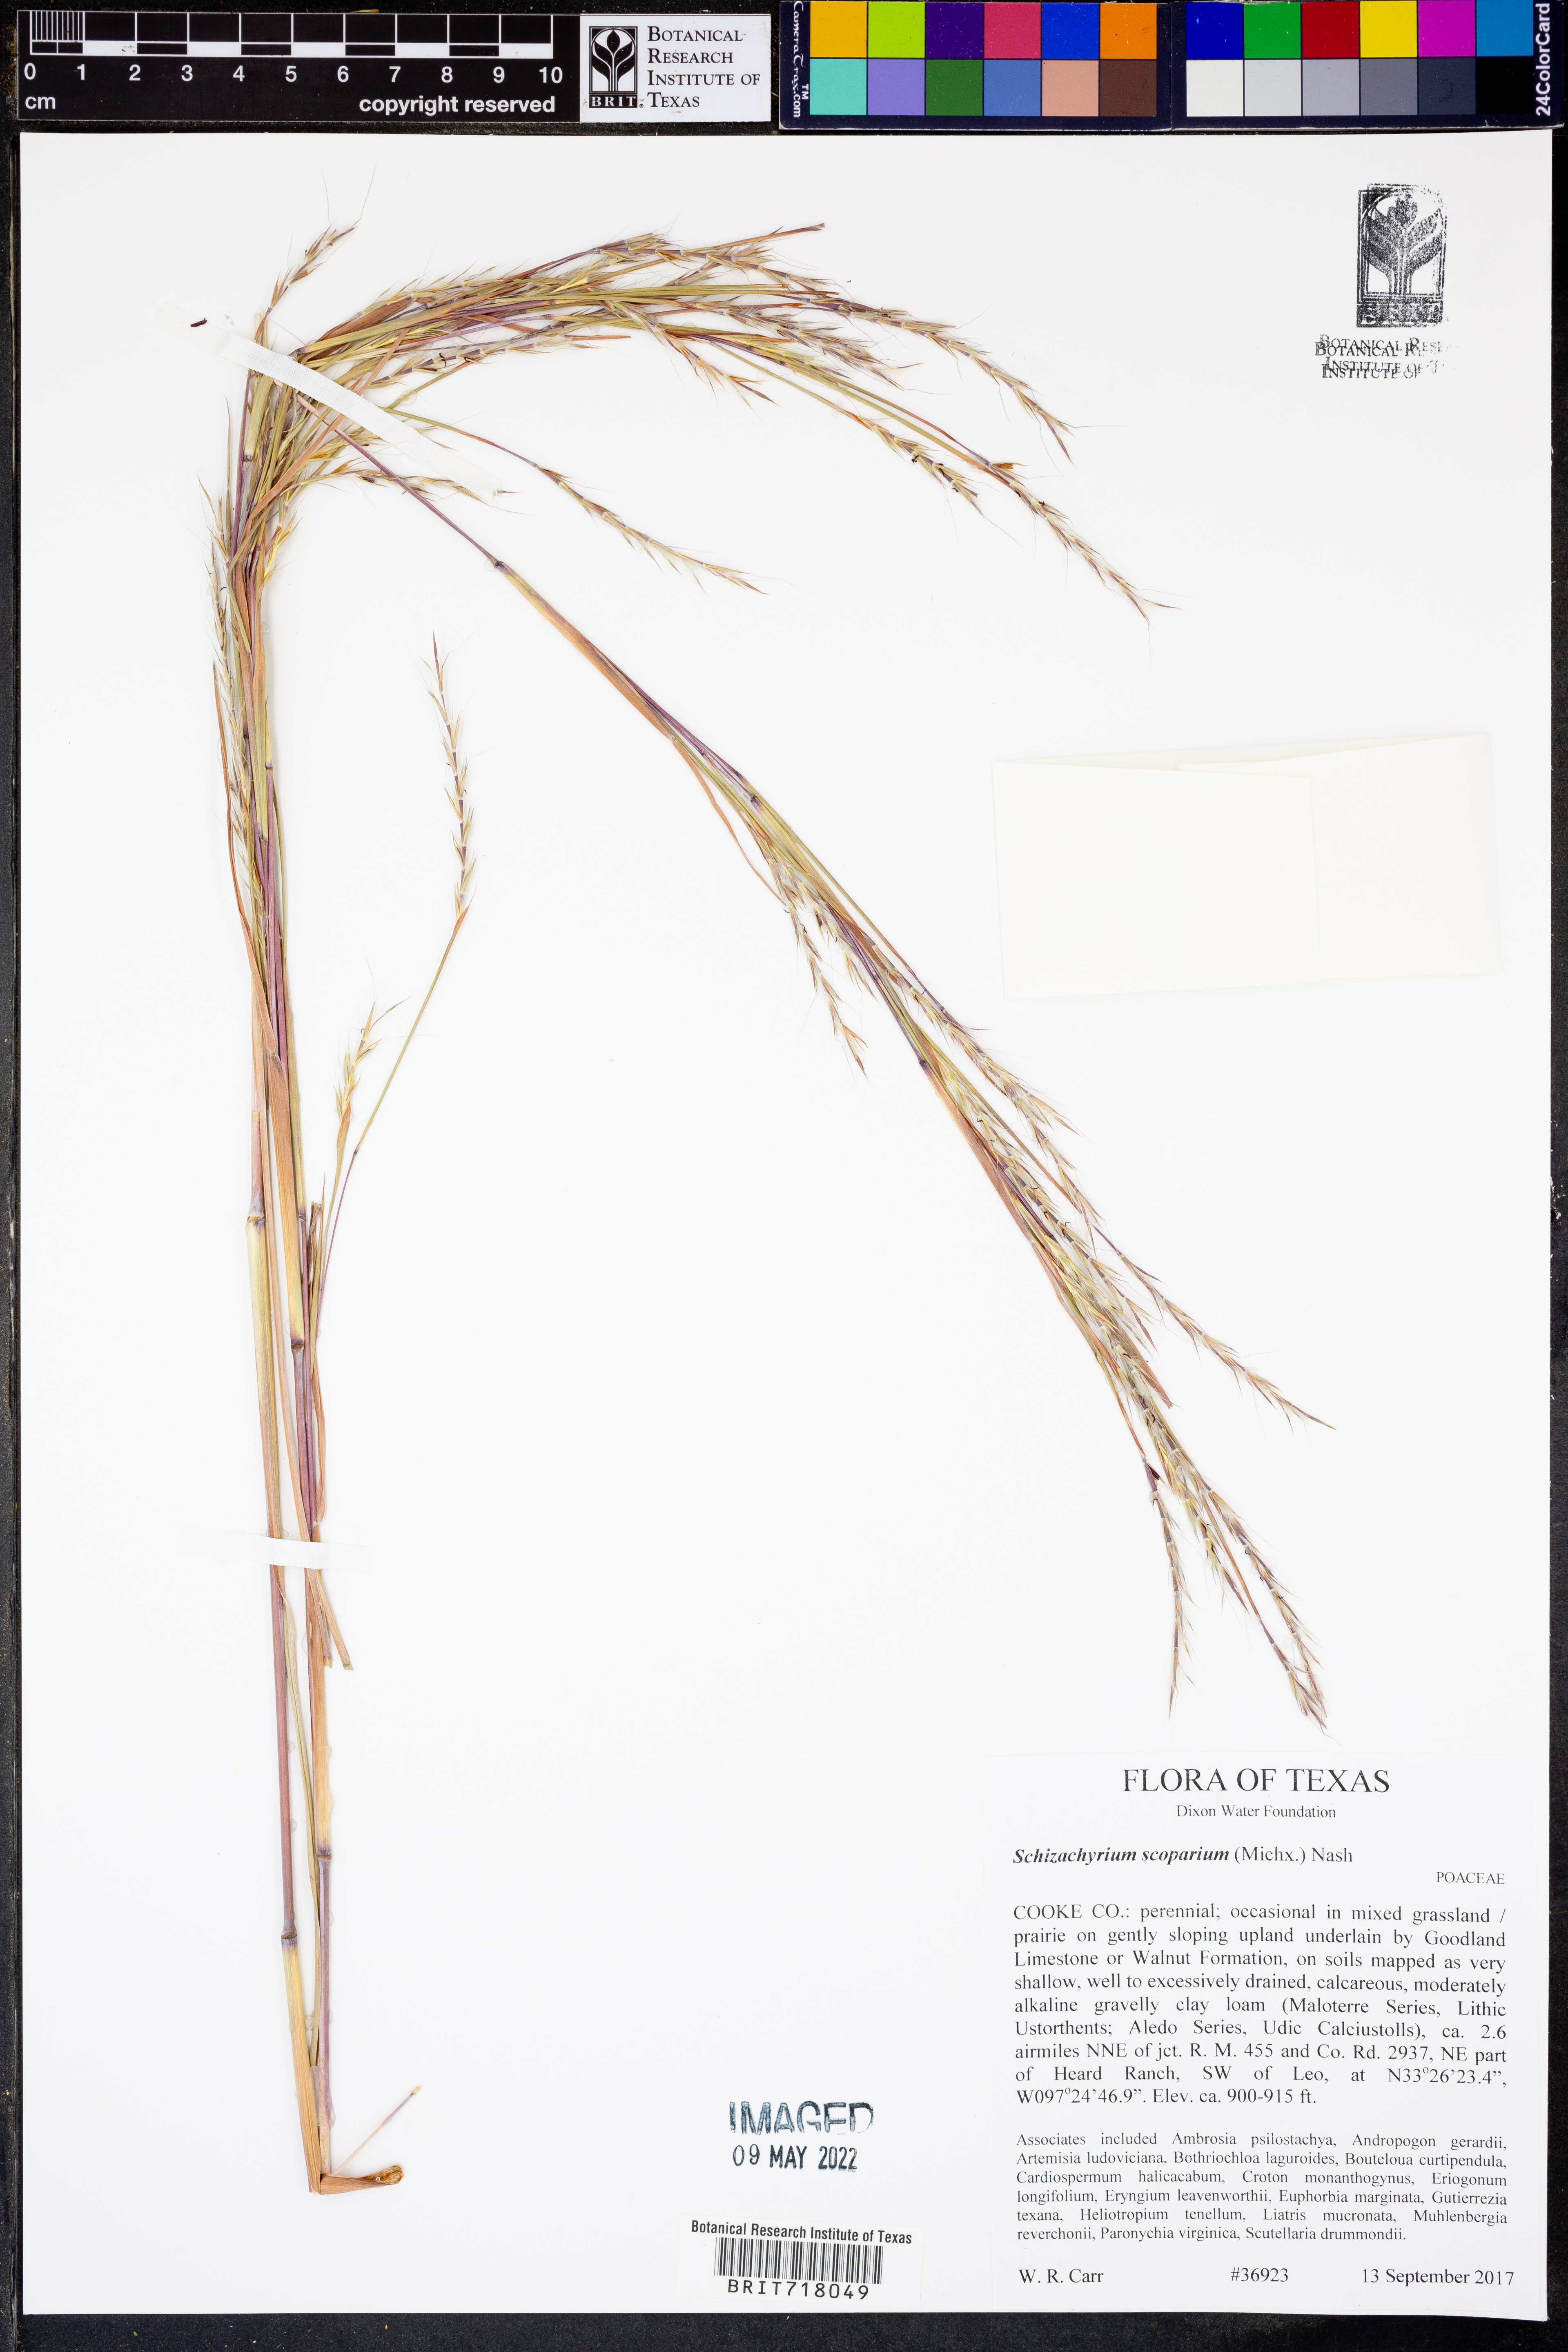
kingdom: Plantae
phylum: Tracheophyta
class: Liliopsida
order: Poales
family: Poaceae
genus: Schizachyrium
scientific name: Schizachyrium scoparium
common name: Little bluestem
